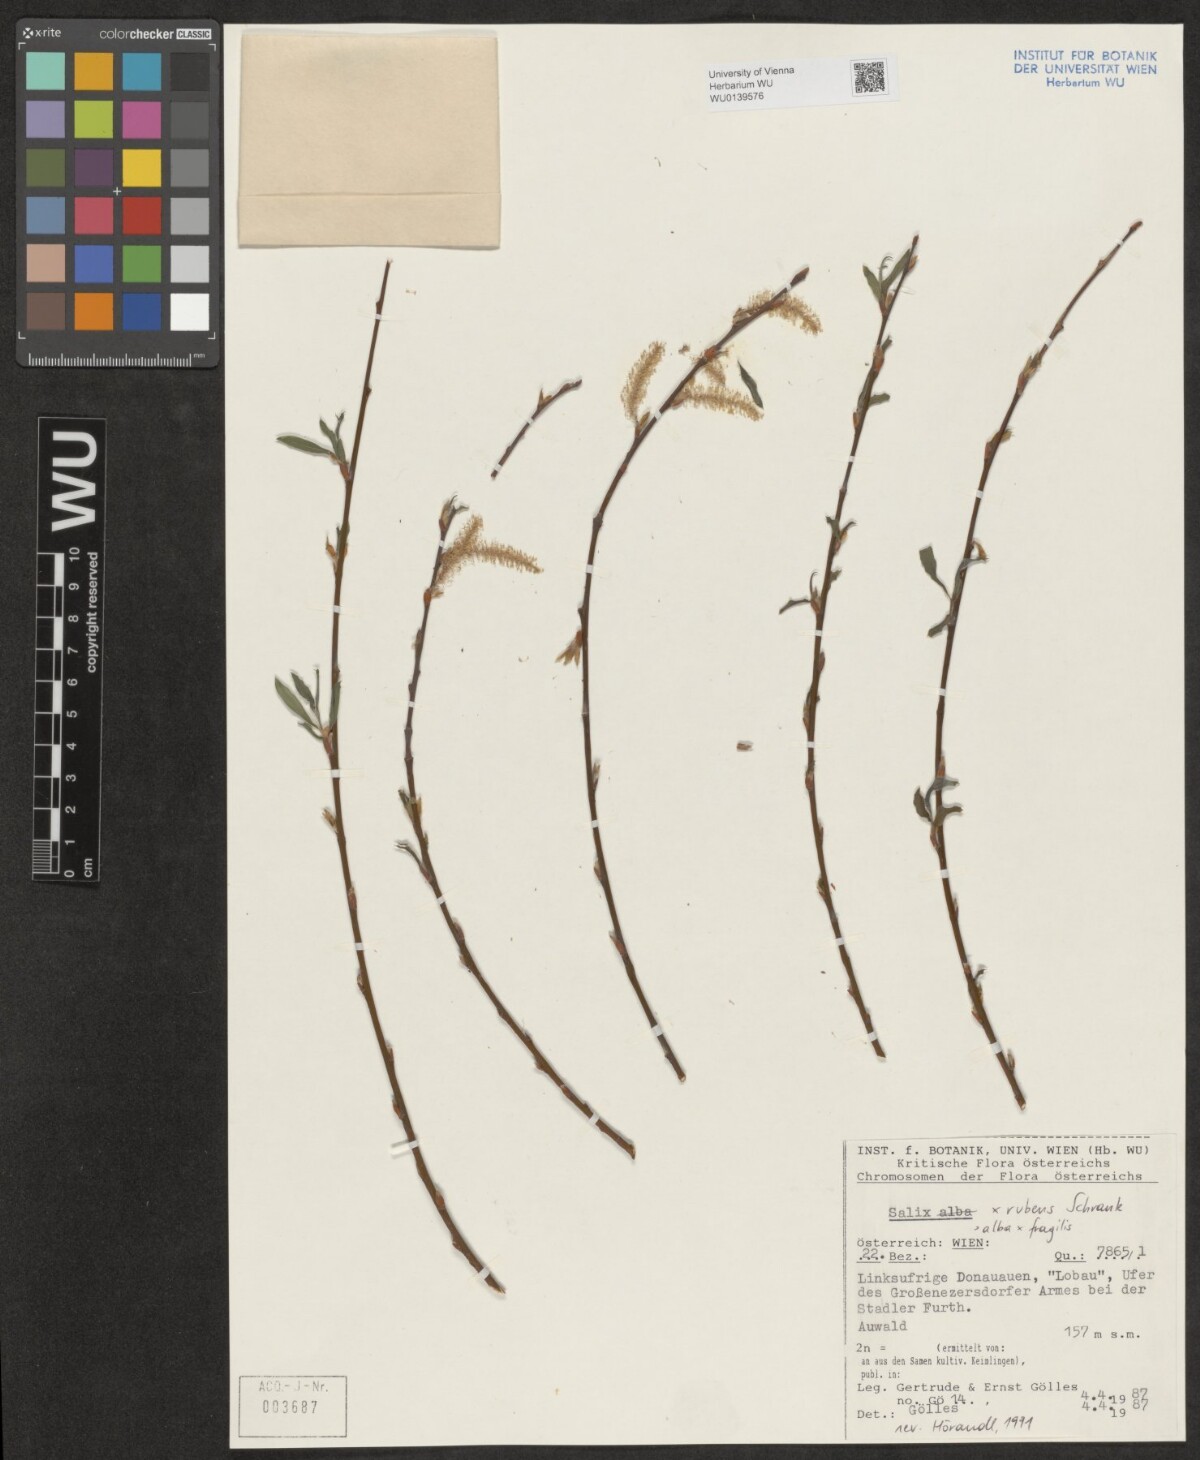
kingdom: Plantae
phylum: Tracheophyta
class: Magnoliopsida
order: Malpighiales
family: Salicaceae
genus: Salix
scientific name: Salix rubens
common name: Hybrid crack willow
